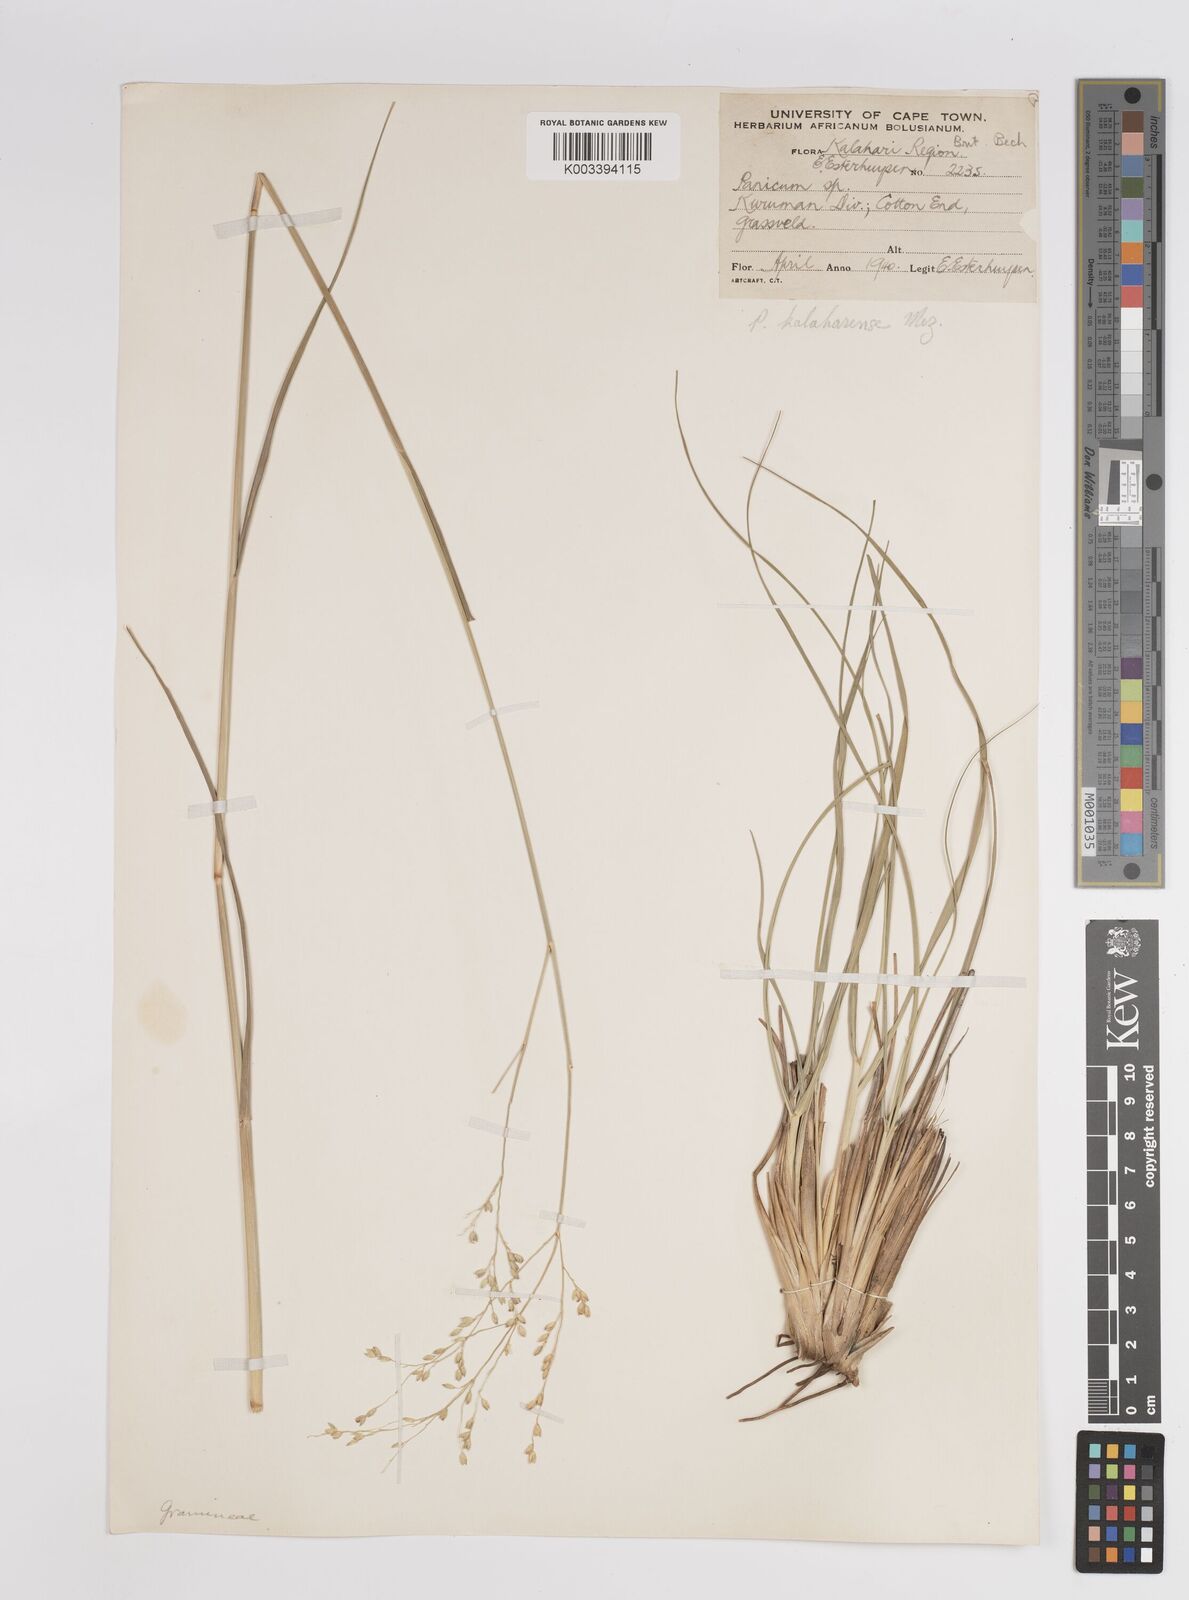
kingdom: Plantae
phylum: Tracheophyta
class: Liliopsida
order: Poales
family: Poaceae
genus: Panicum
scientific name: Panicum kalaharense
